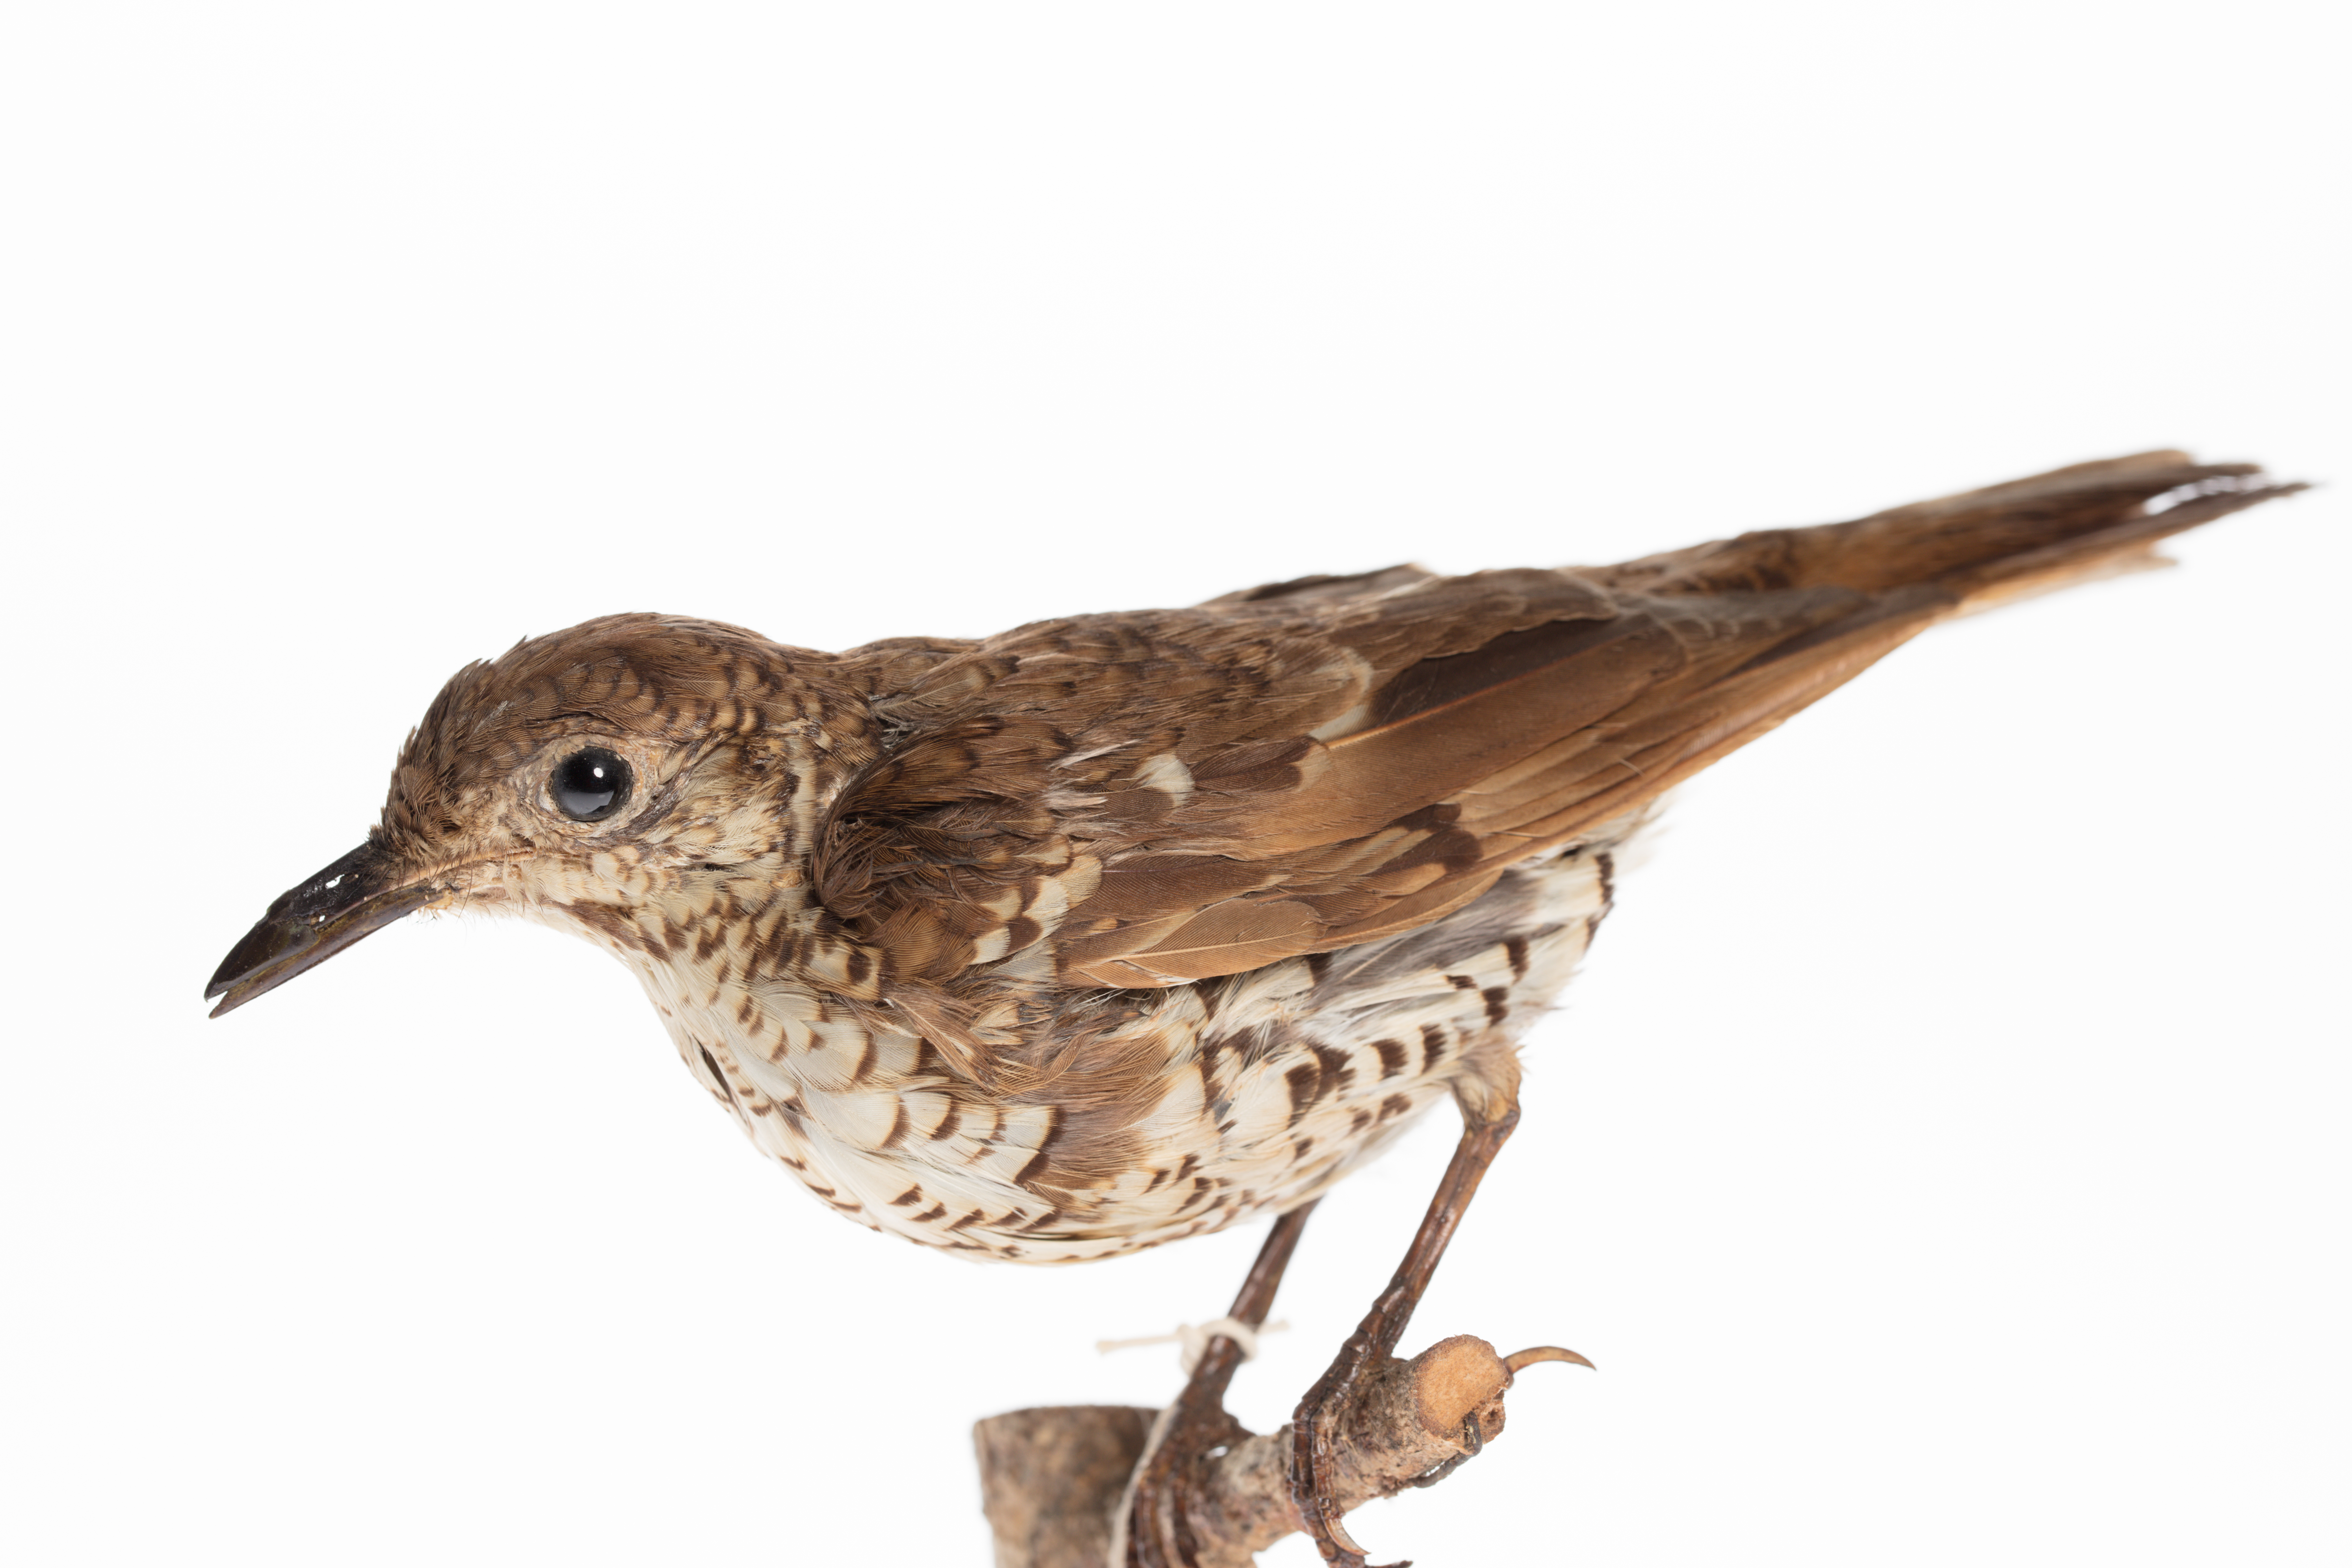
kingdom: Animalia
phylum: Chordata
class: Aves
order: Passeriformes
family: Turdidae
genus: Zoothera
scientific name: Zoothera lunulata
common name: Bassian thrush
